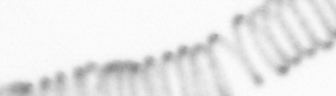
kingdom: Chromista
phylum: Ochrophyta
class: Bacillariophyceae
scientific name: Bacillariophyceae
